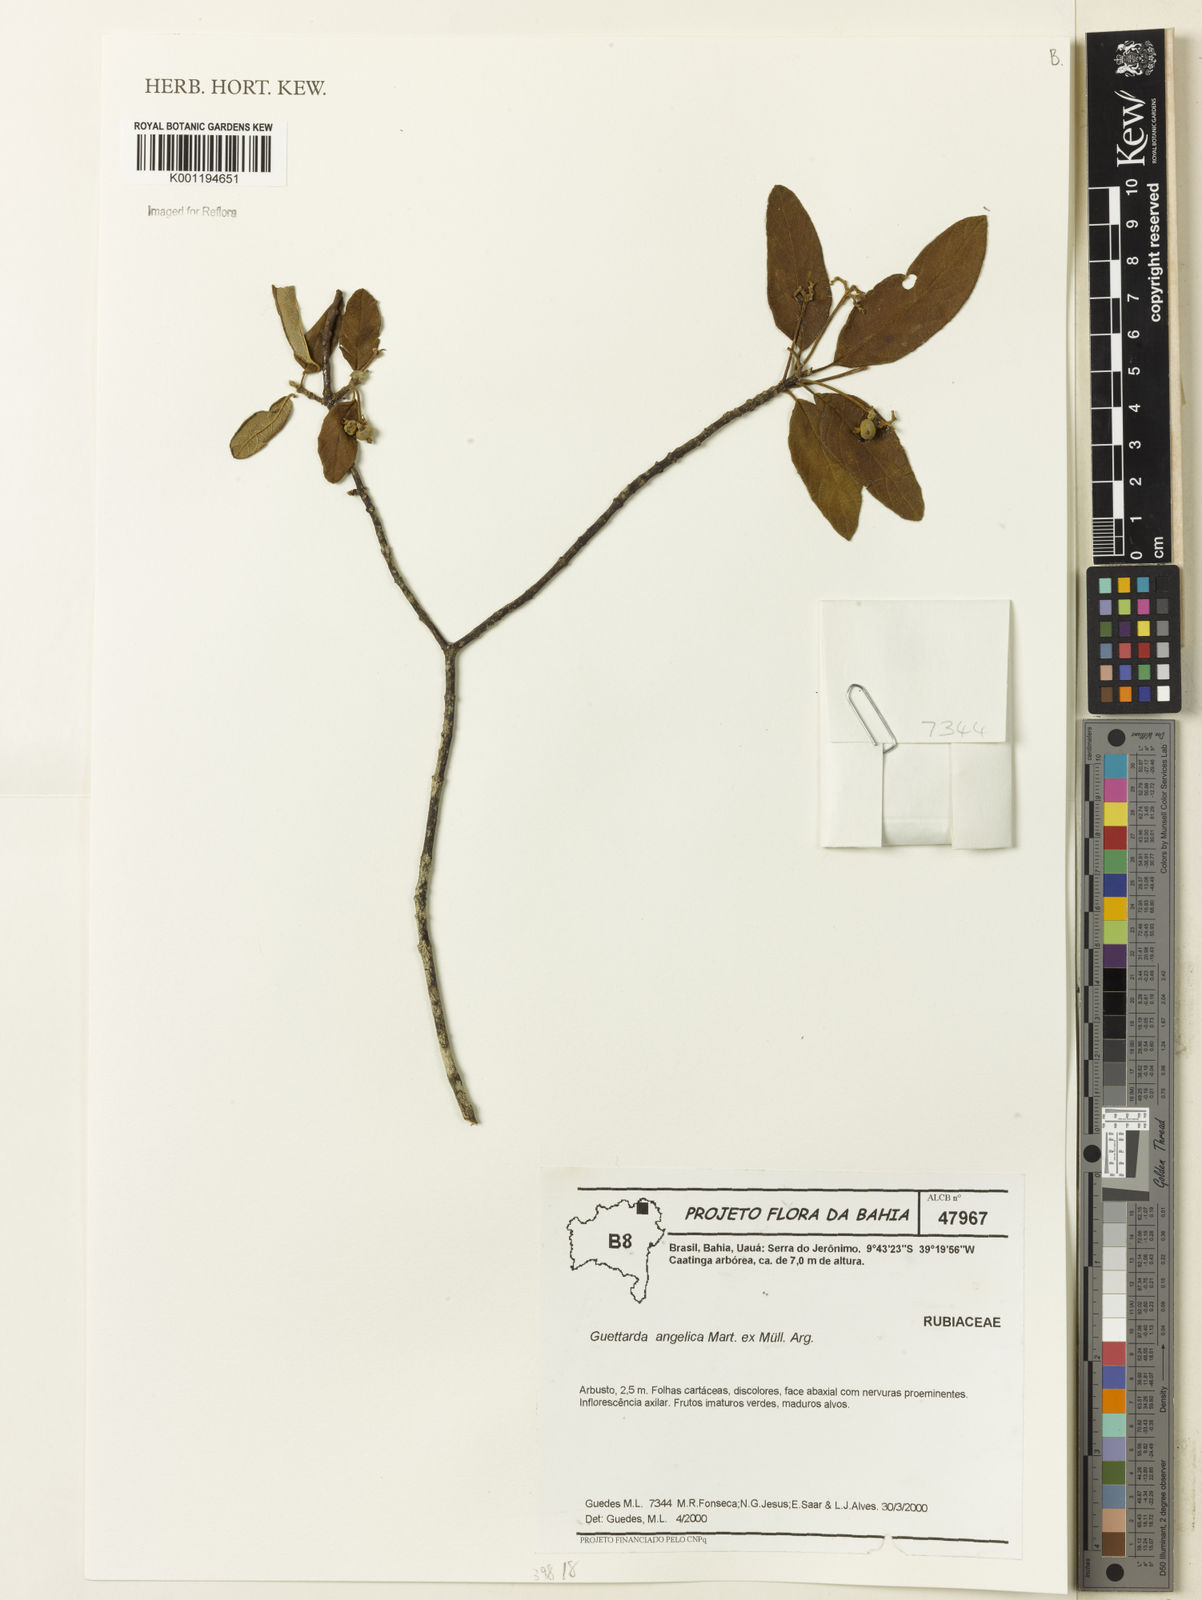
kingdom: Plantae
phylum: Tracheophyta
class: Magnoliopsida
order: Gentianales
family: Rubiaceae
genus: Guettarda
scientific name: Guettarda
